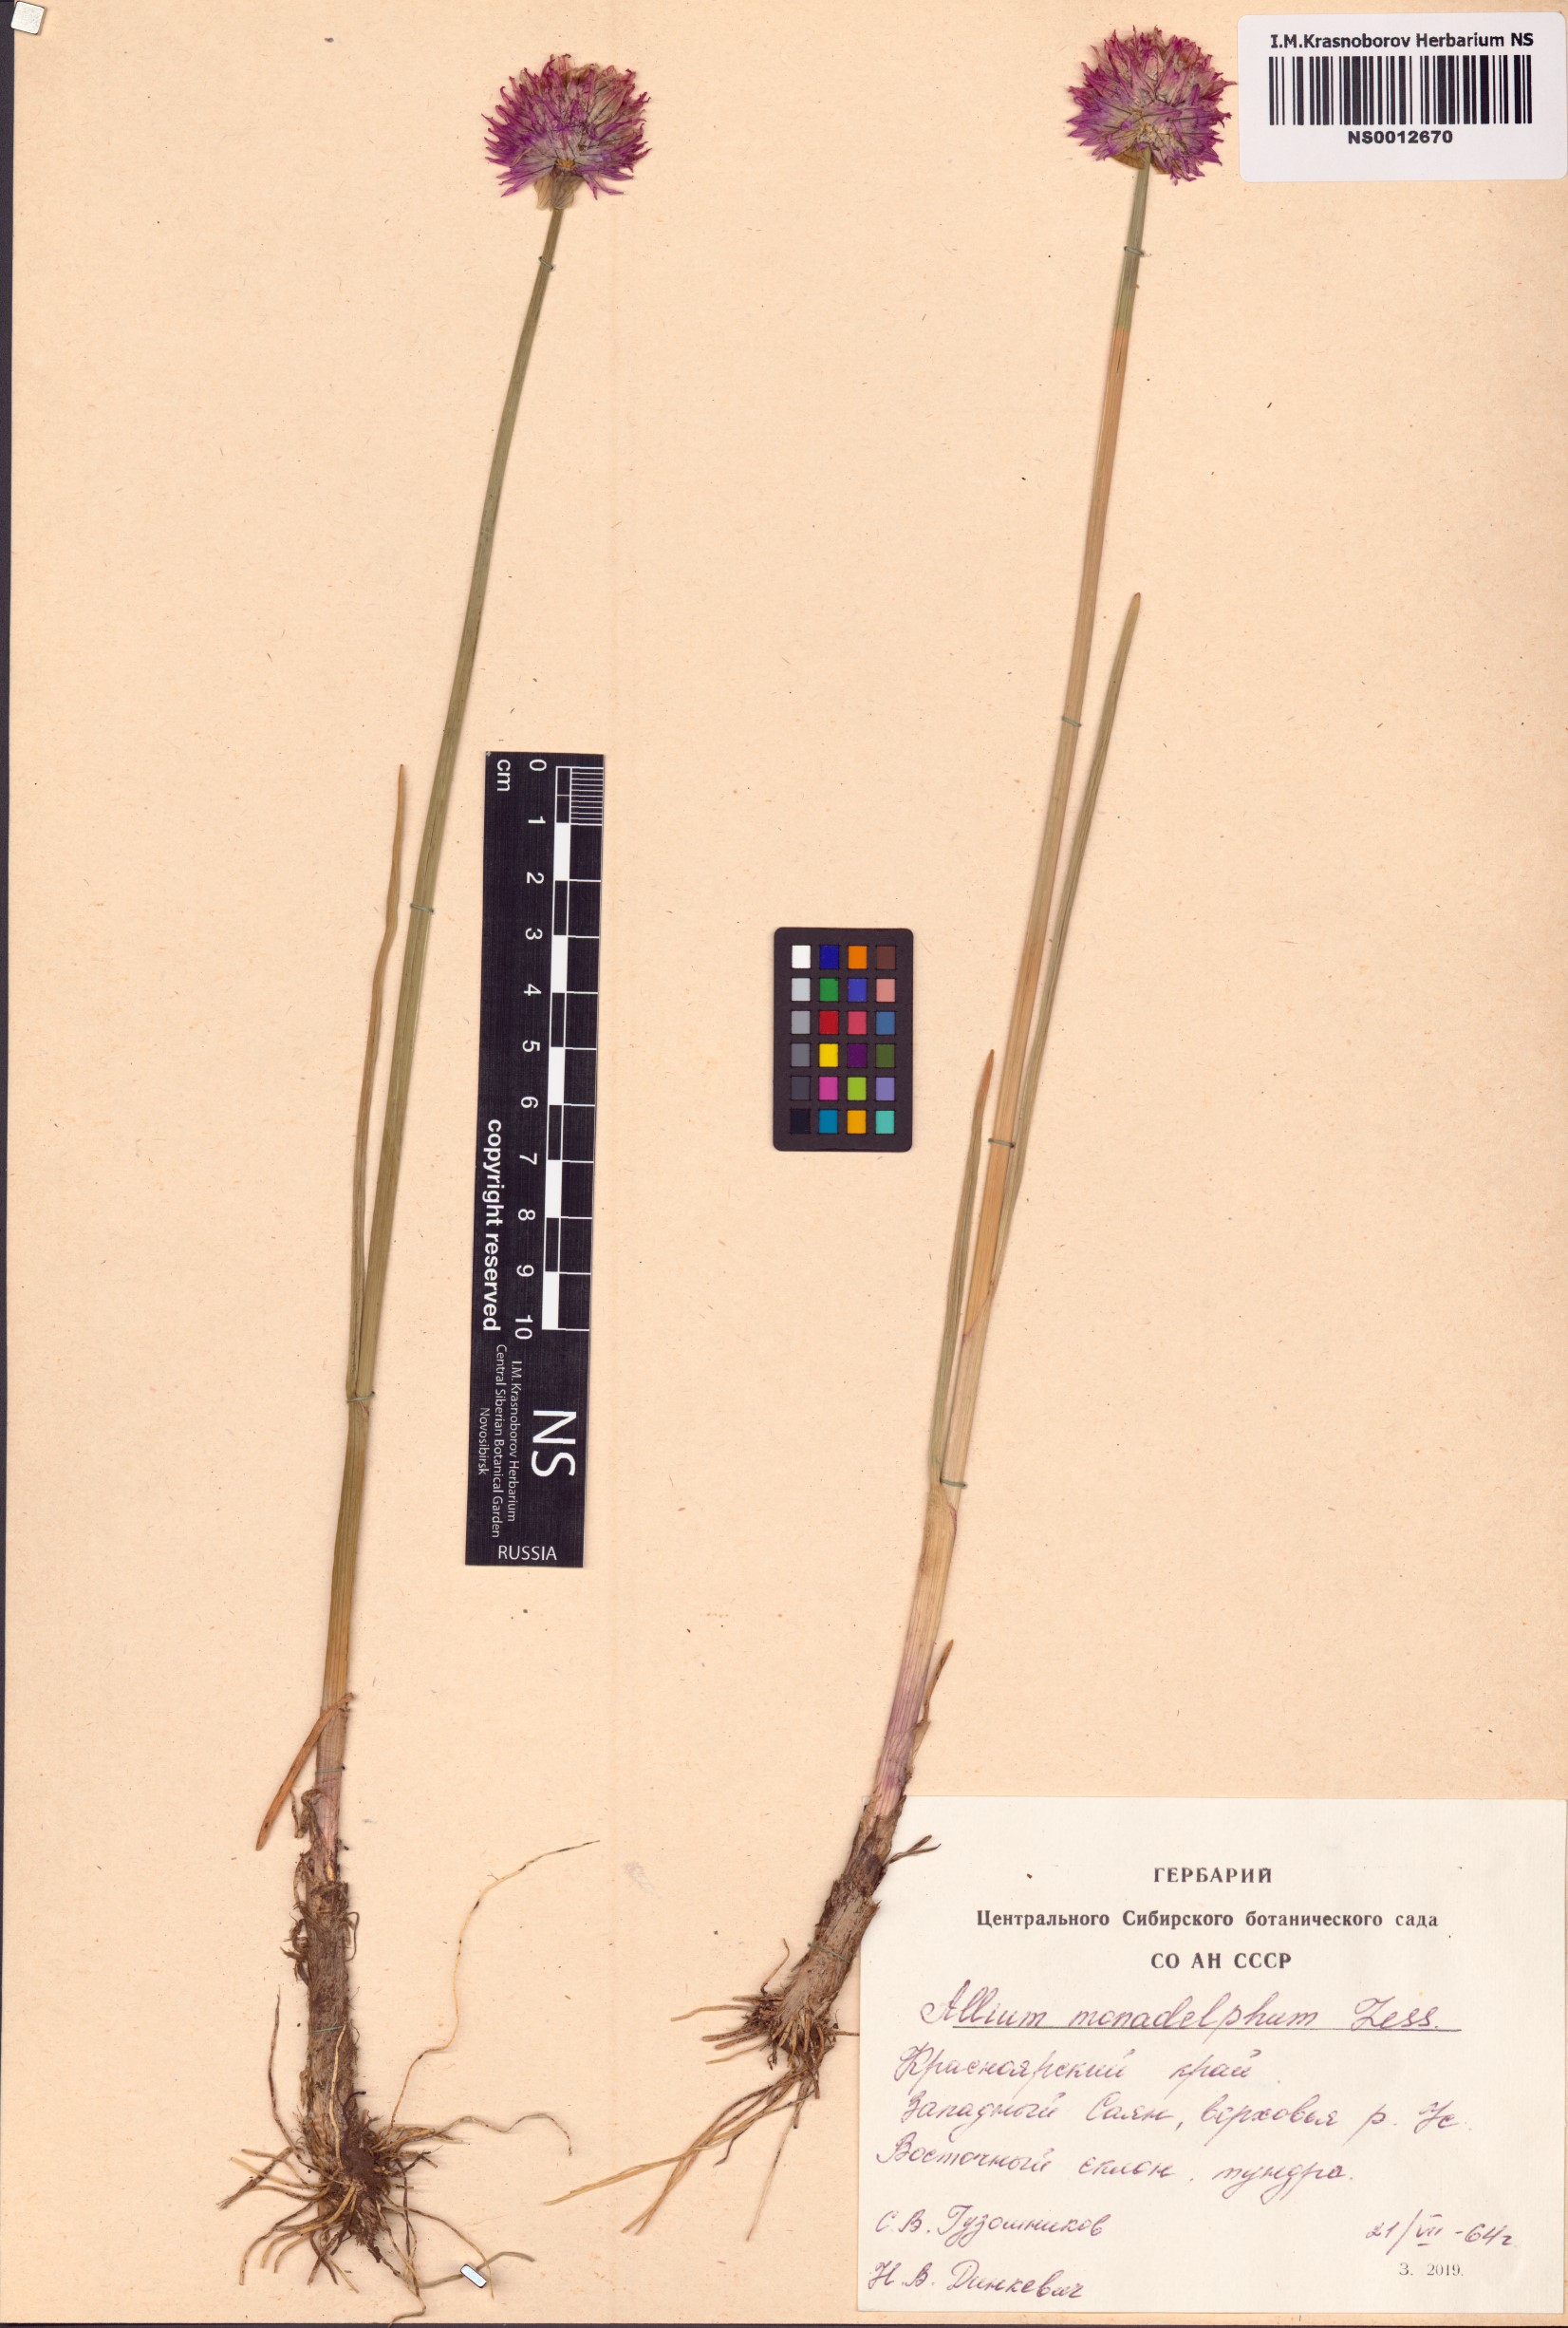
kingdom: Plantae
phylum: Tracheophyta
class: Liliopsida
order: Asparagales
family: Amaryllidaceae
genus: Allium
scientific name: Allium atrosanguineum
